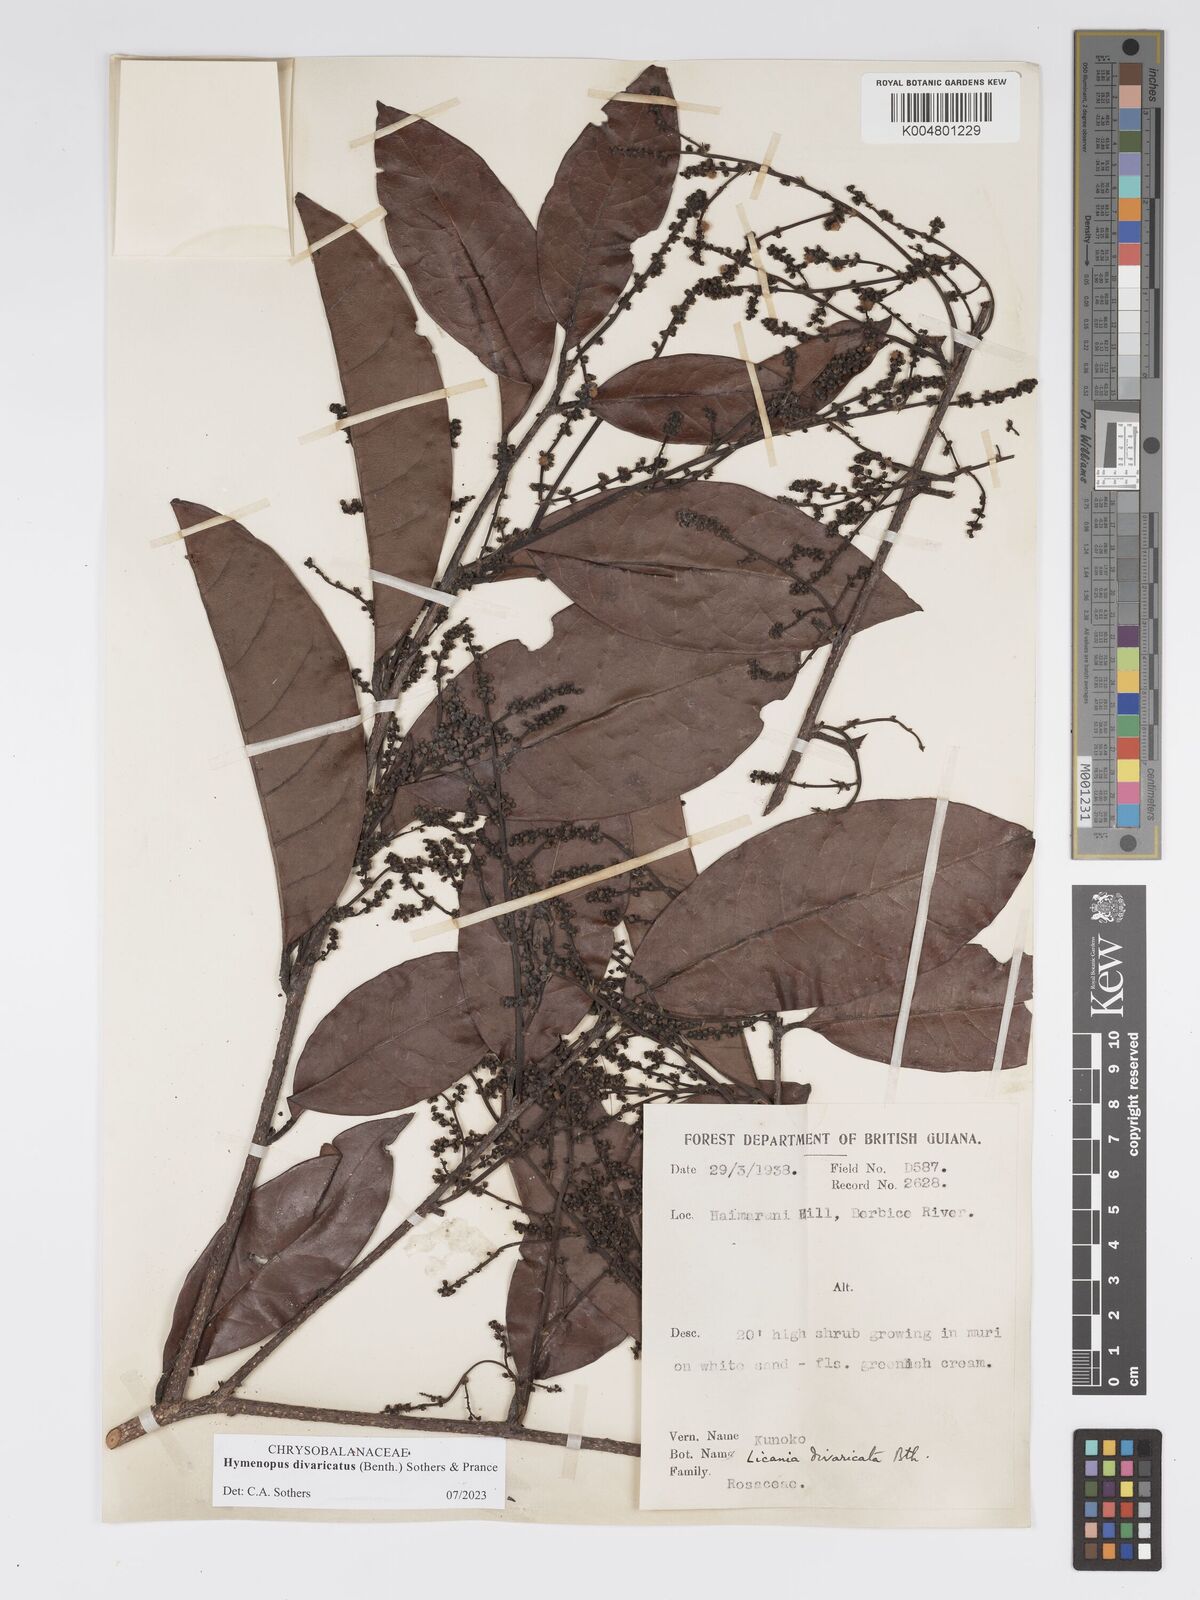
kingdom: Plantae
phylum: Tracheophyta
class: Magnoliopsida
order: Malpighiales
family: Chrysobalanaceae
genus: Hymenopus
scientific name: Hymenopus divaricatus
